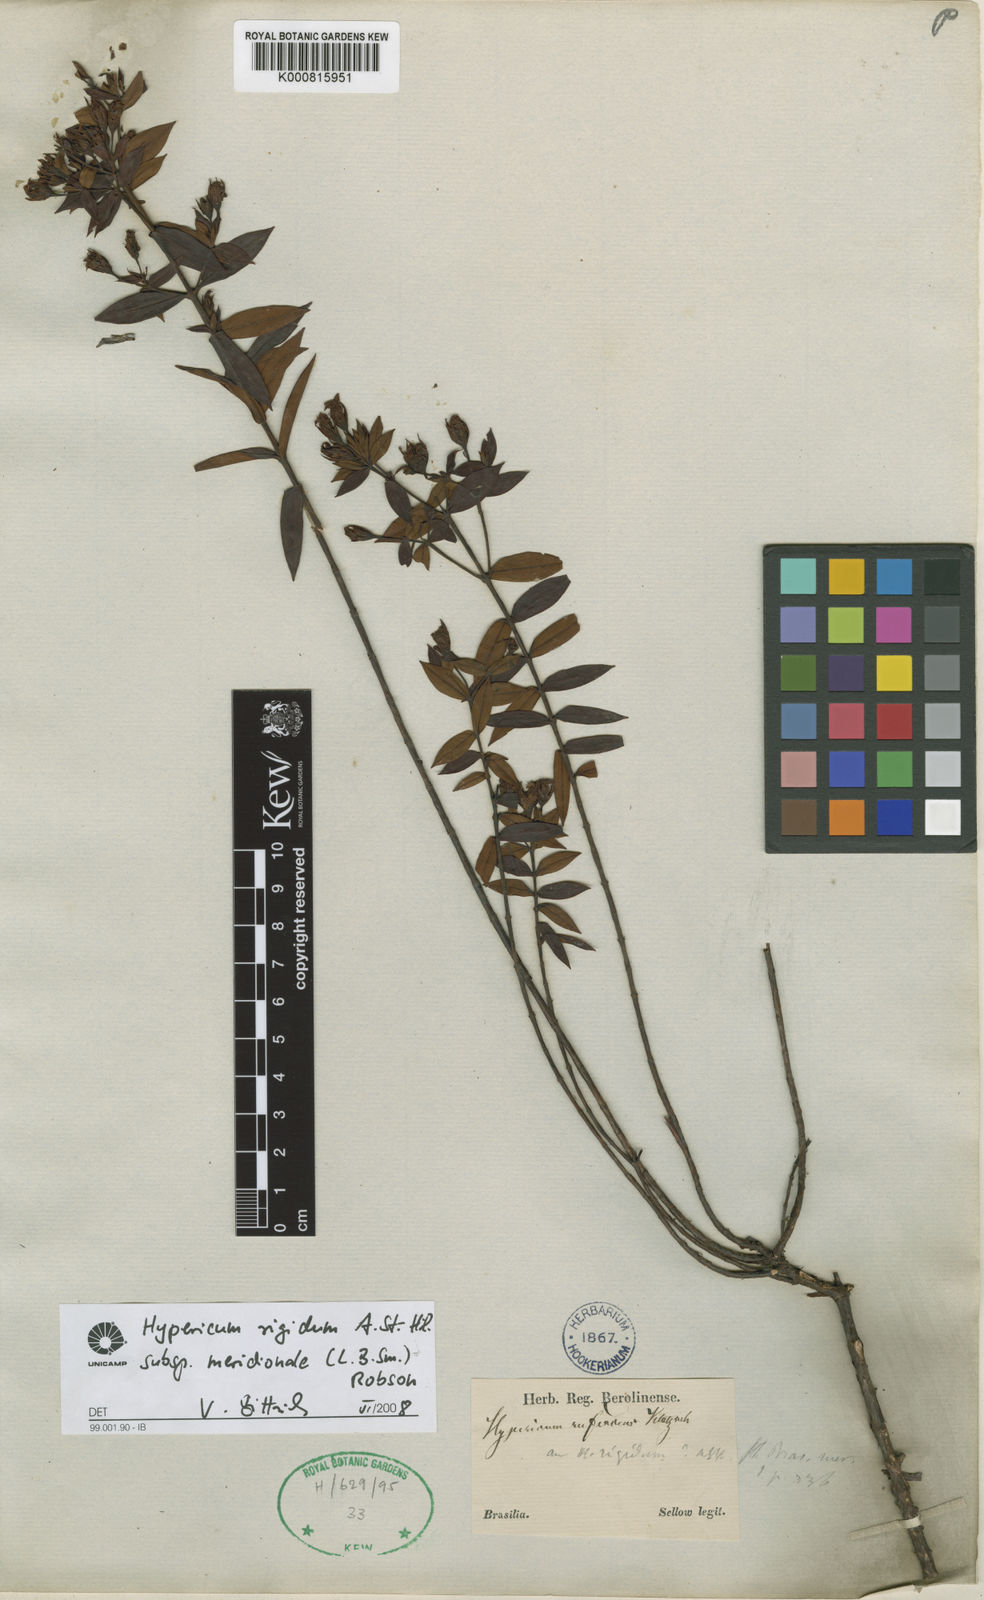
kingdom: Plantae
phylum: Tracheophyta
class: Magnoliopsida
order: Malpighiales
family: Hypericaceae
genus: Hypericum
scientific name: Hypericum rigidum
